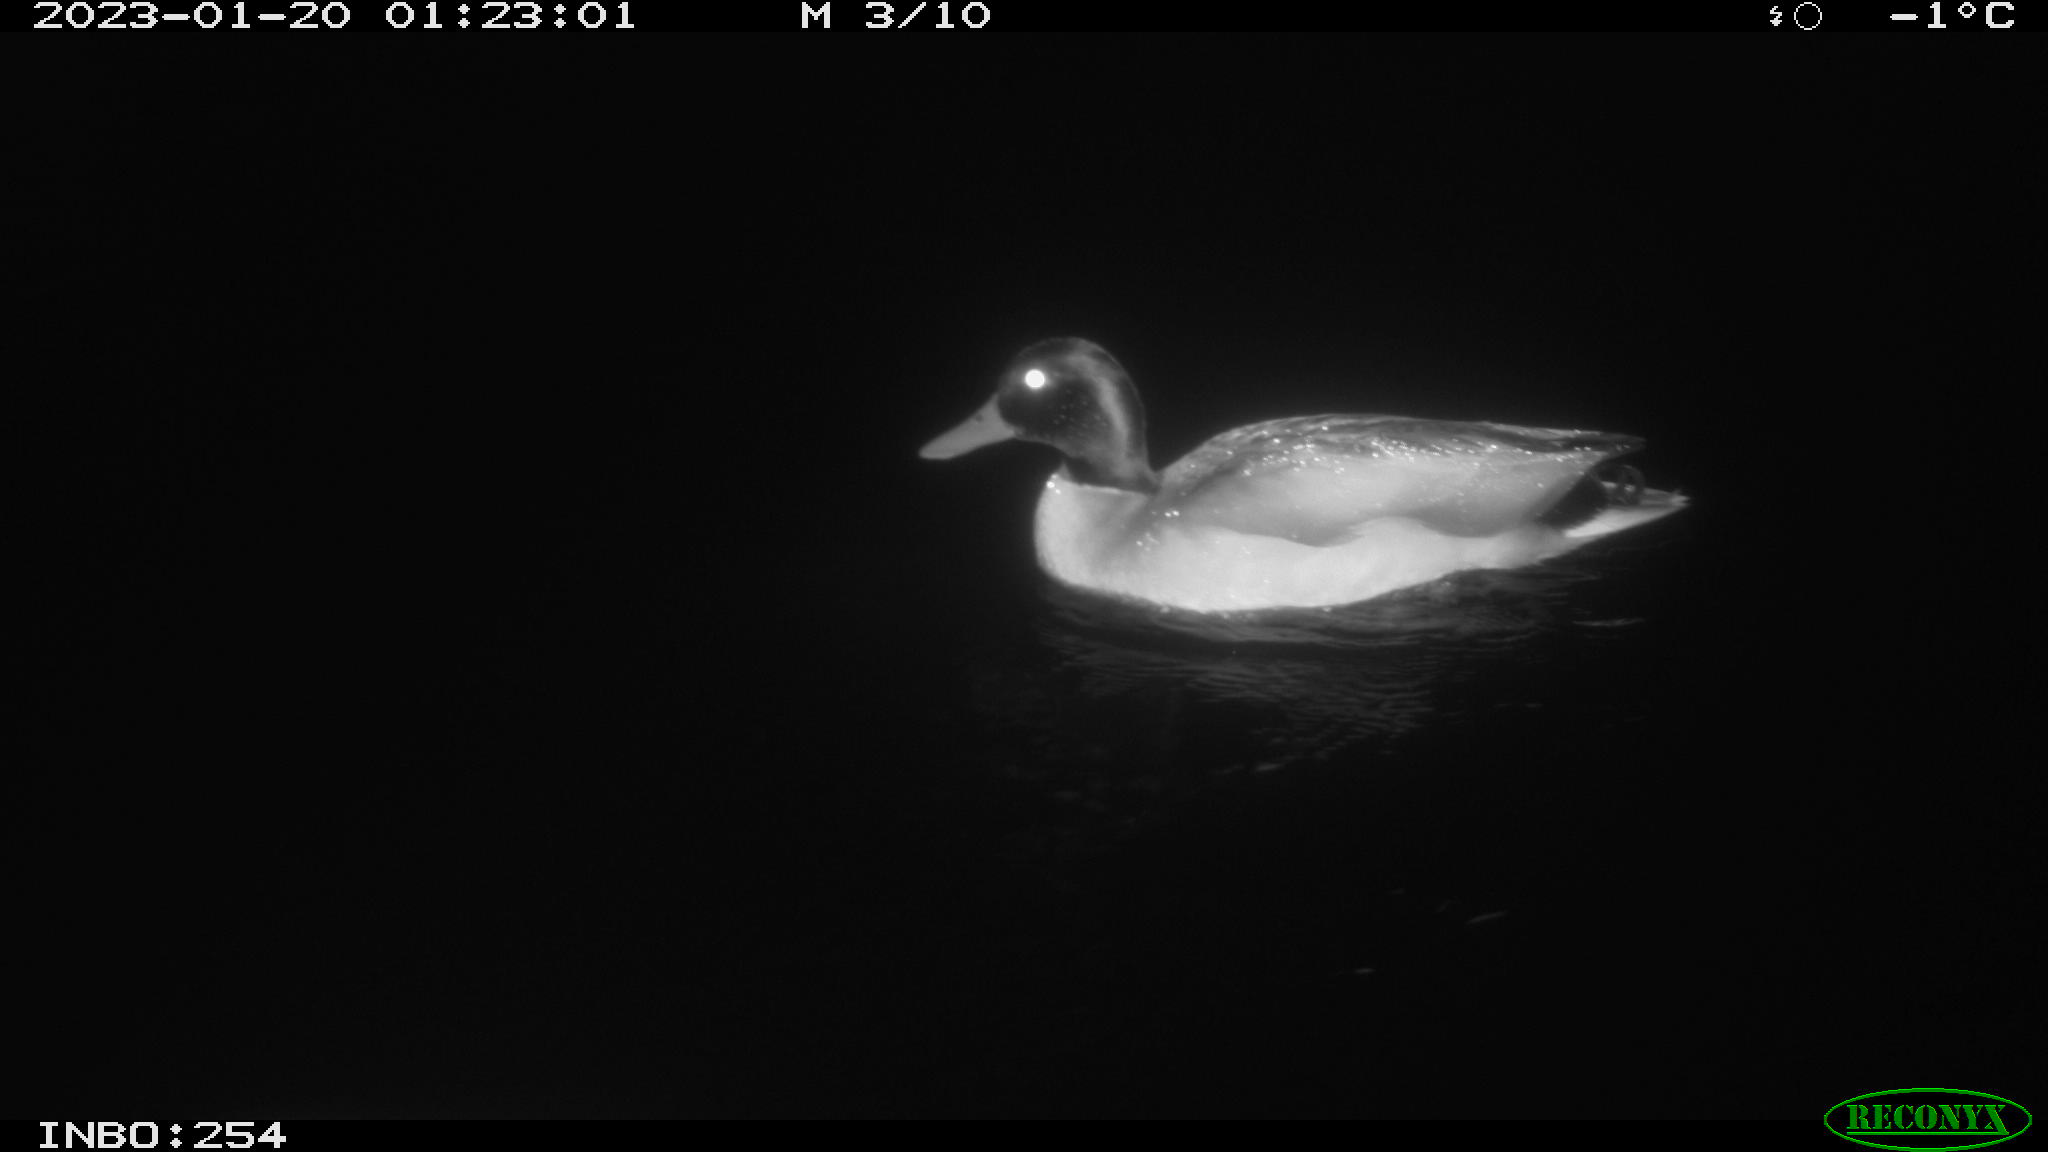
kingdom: Animalia
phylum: Chordata
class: Aves
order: Anseriformes
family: Anatidae
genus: Anas
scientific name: Anas
